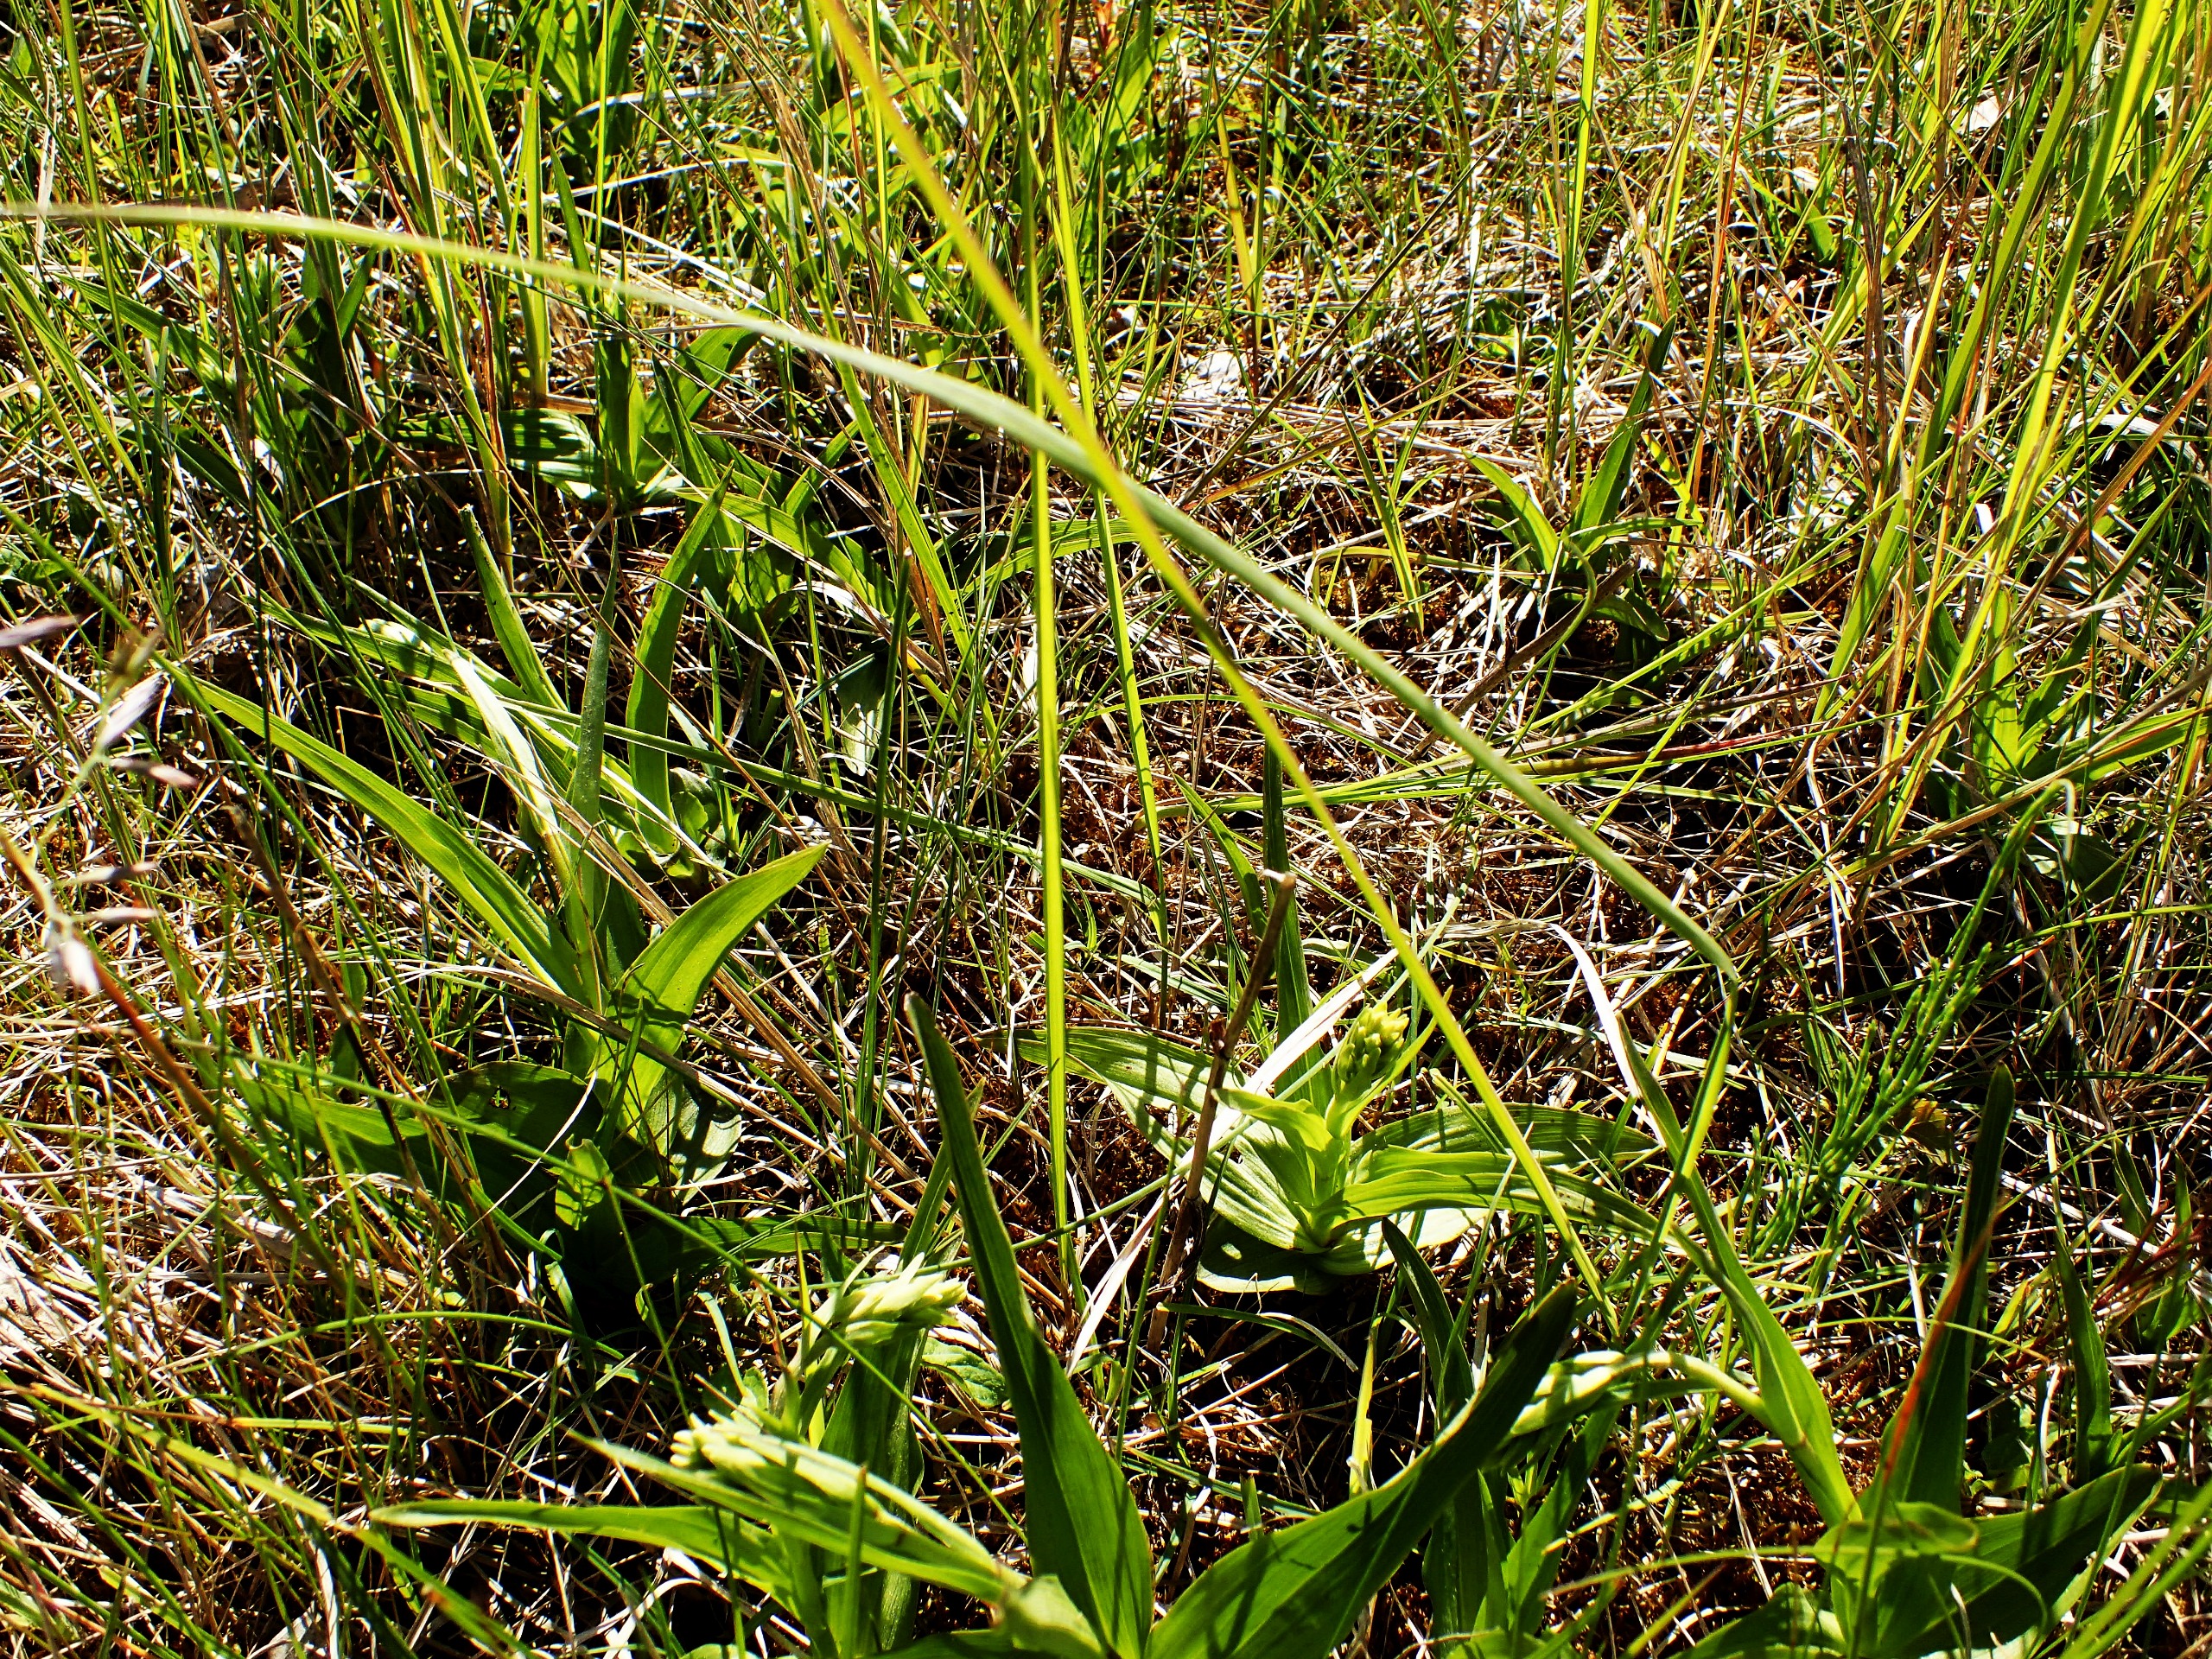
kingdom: Plantae
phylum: Tracheophyta
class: Liliopsida
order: Asparagales
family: Orchidaceae
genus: Epipactis
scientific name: Epipactis palustris
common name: Sump-hullæbe
